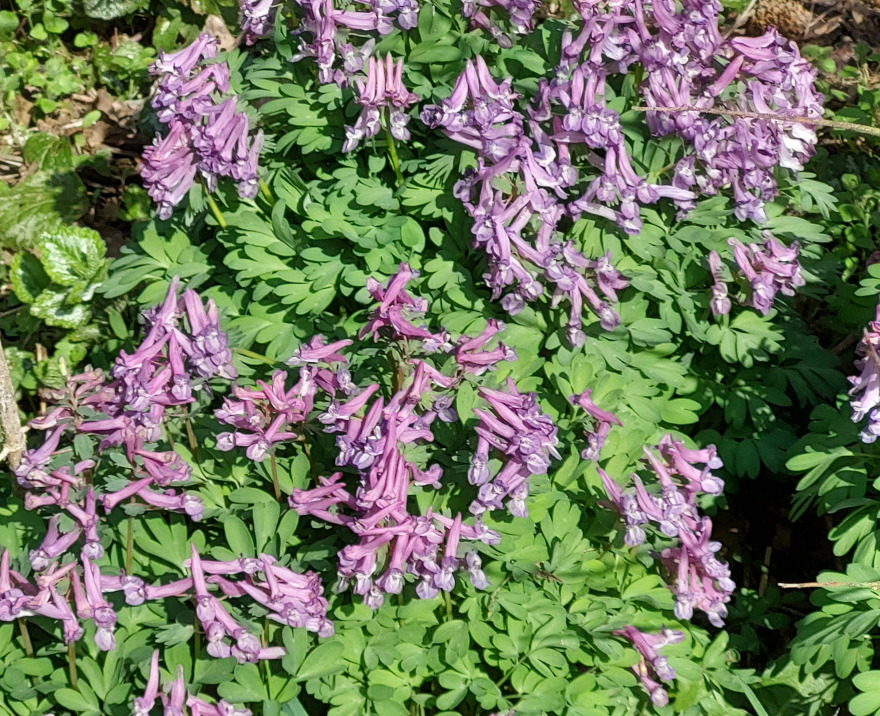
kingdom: Plantae
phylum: Tracheophyta
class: Magnoliopsida
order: Ranunculales
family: Papaveraceae
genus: Corydalis
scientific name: Corydalis solida
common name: Langstilket lærkespore
